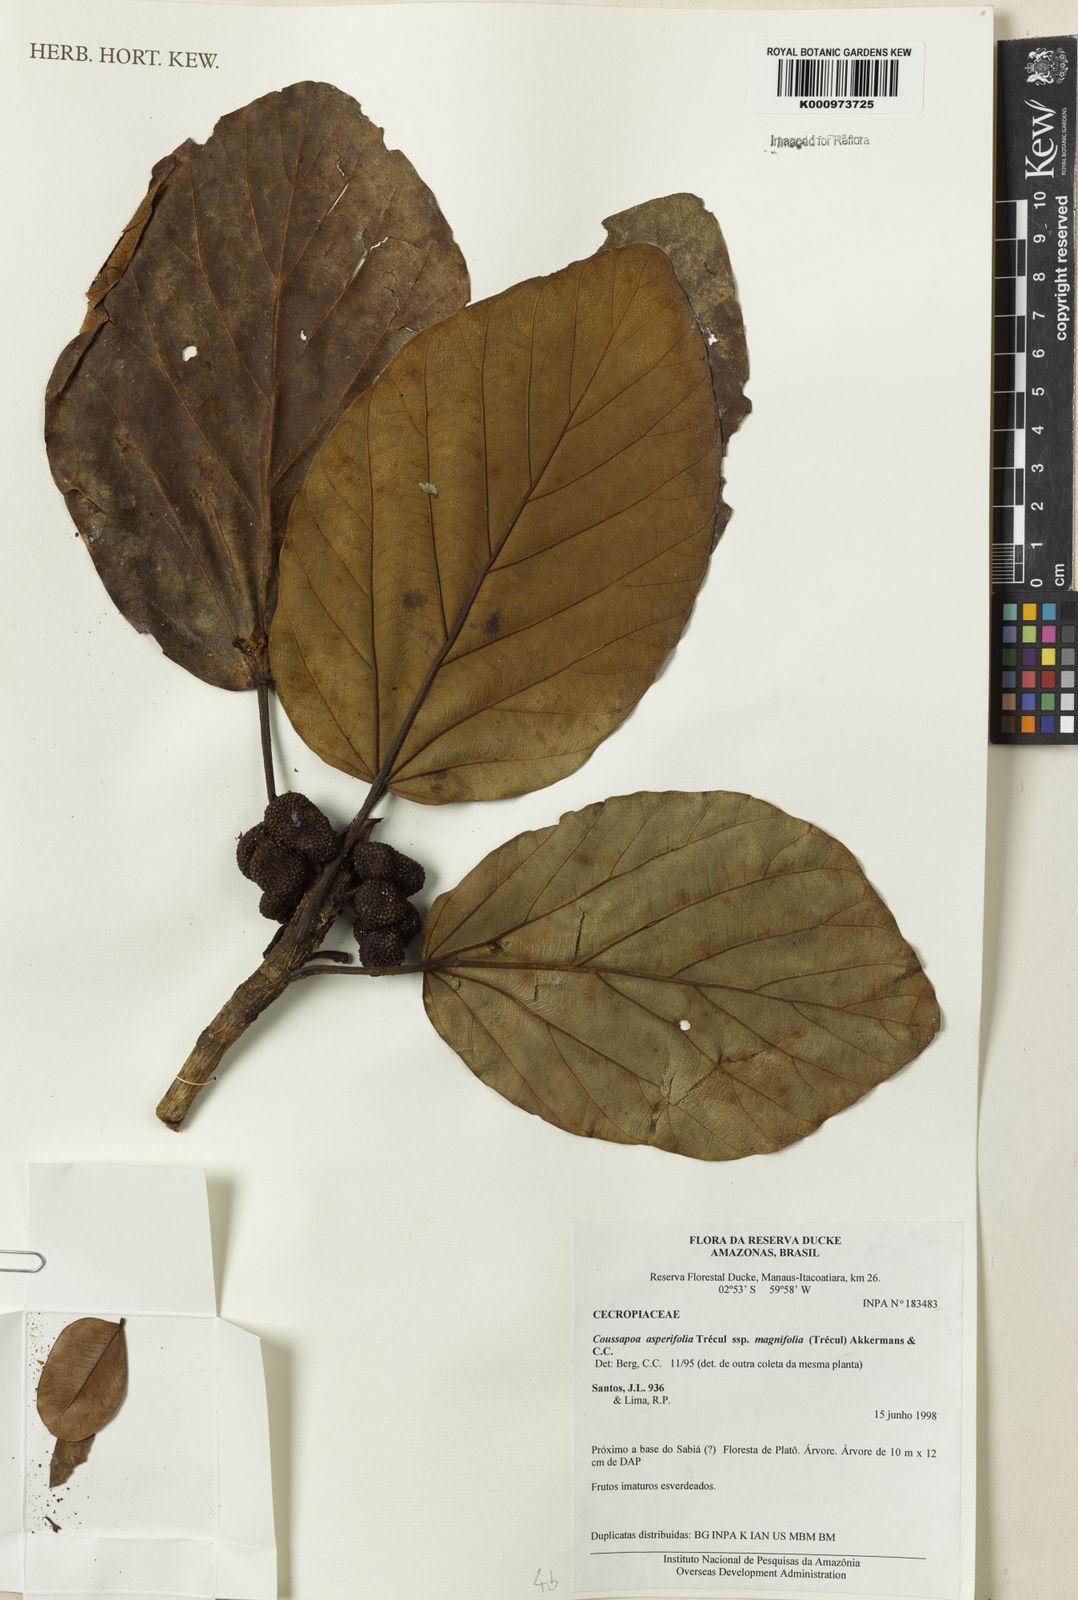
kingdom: Plantae
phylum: Tracheophyta
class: Magnoliopsida
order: Rosales
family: Urticaceae
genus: Coussapoa
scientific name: Coussapoa
